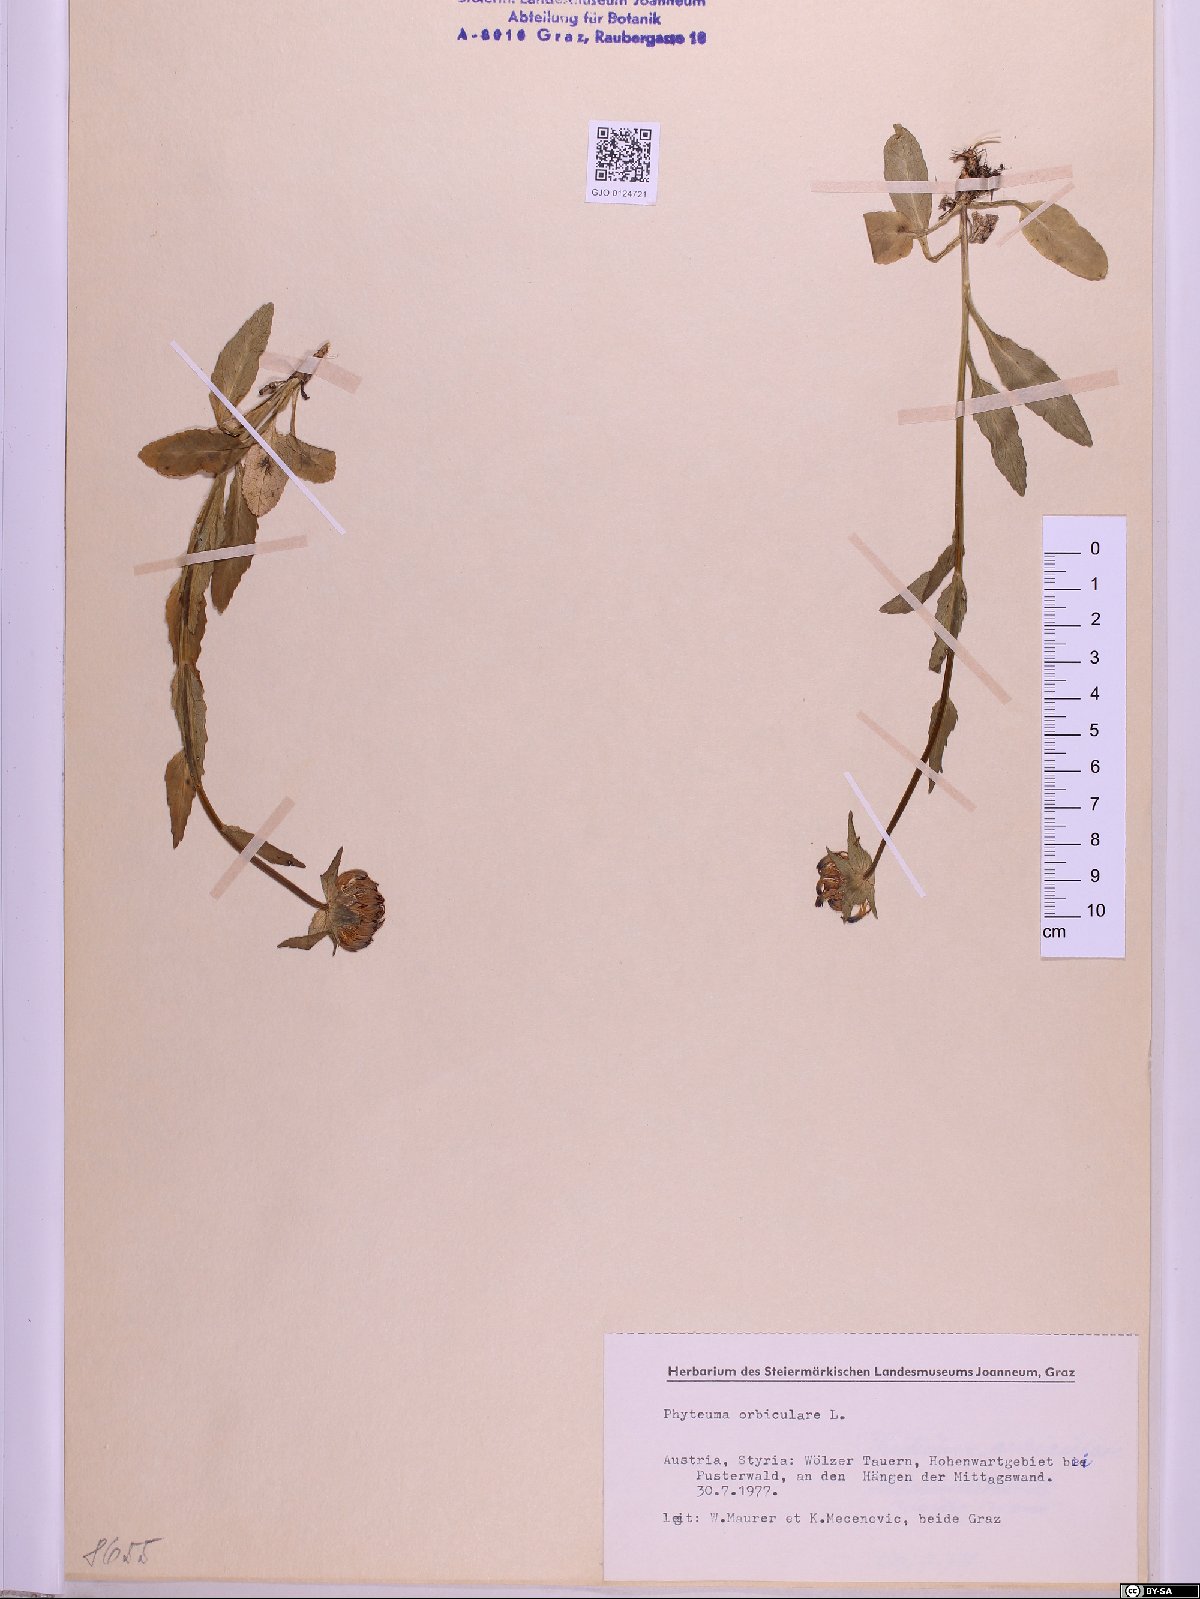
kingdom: Plantae
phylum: Tracheophyta
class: Magnoliopsida
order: Asterales
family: Campanulaceae
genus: Phyteuma
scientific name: Phyteuma orbiculare
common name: Round-headed rampion
